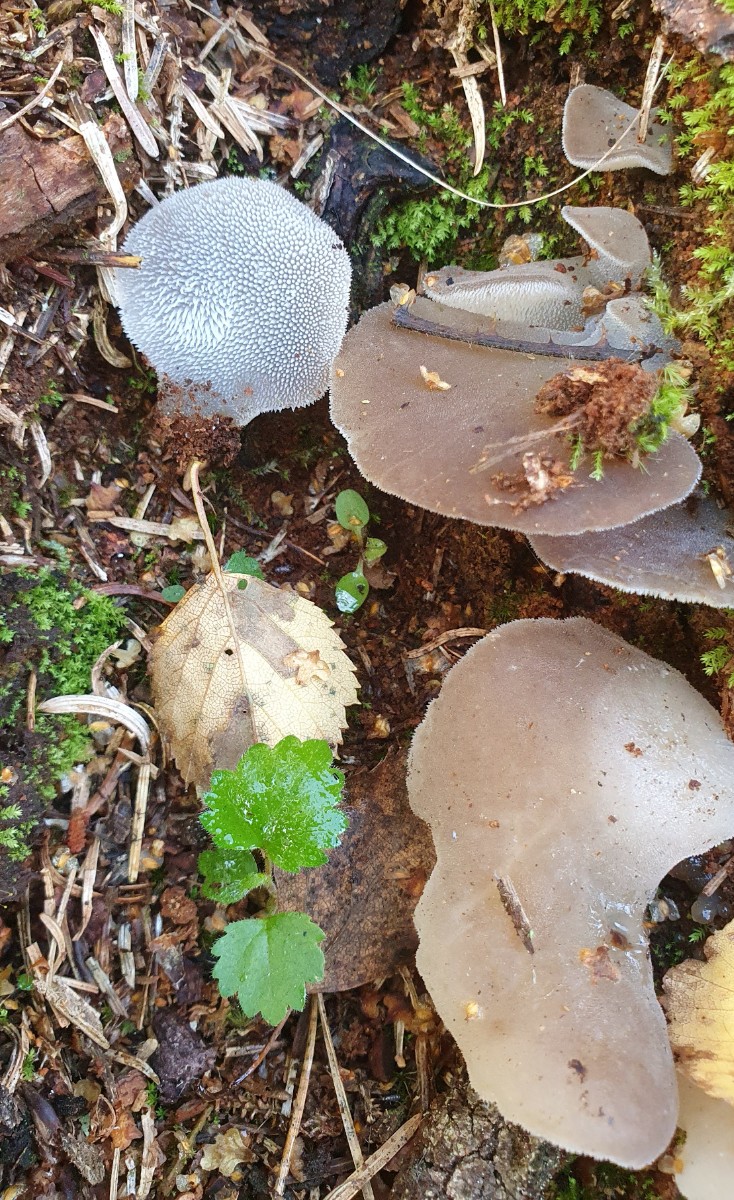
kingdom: Fungi
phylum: Basidiomycota
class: Agaricomycetes
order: Auriculariales
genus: Pseudohydnum
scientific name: Pseudohydnum gelatinosum
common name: bævretand
